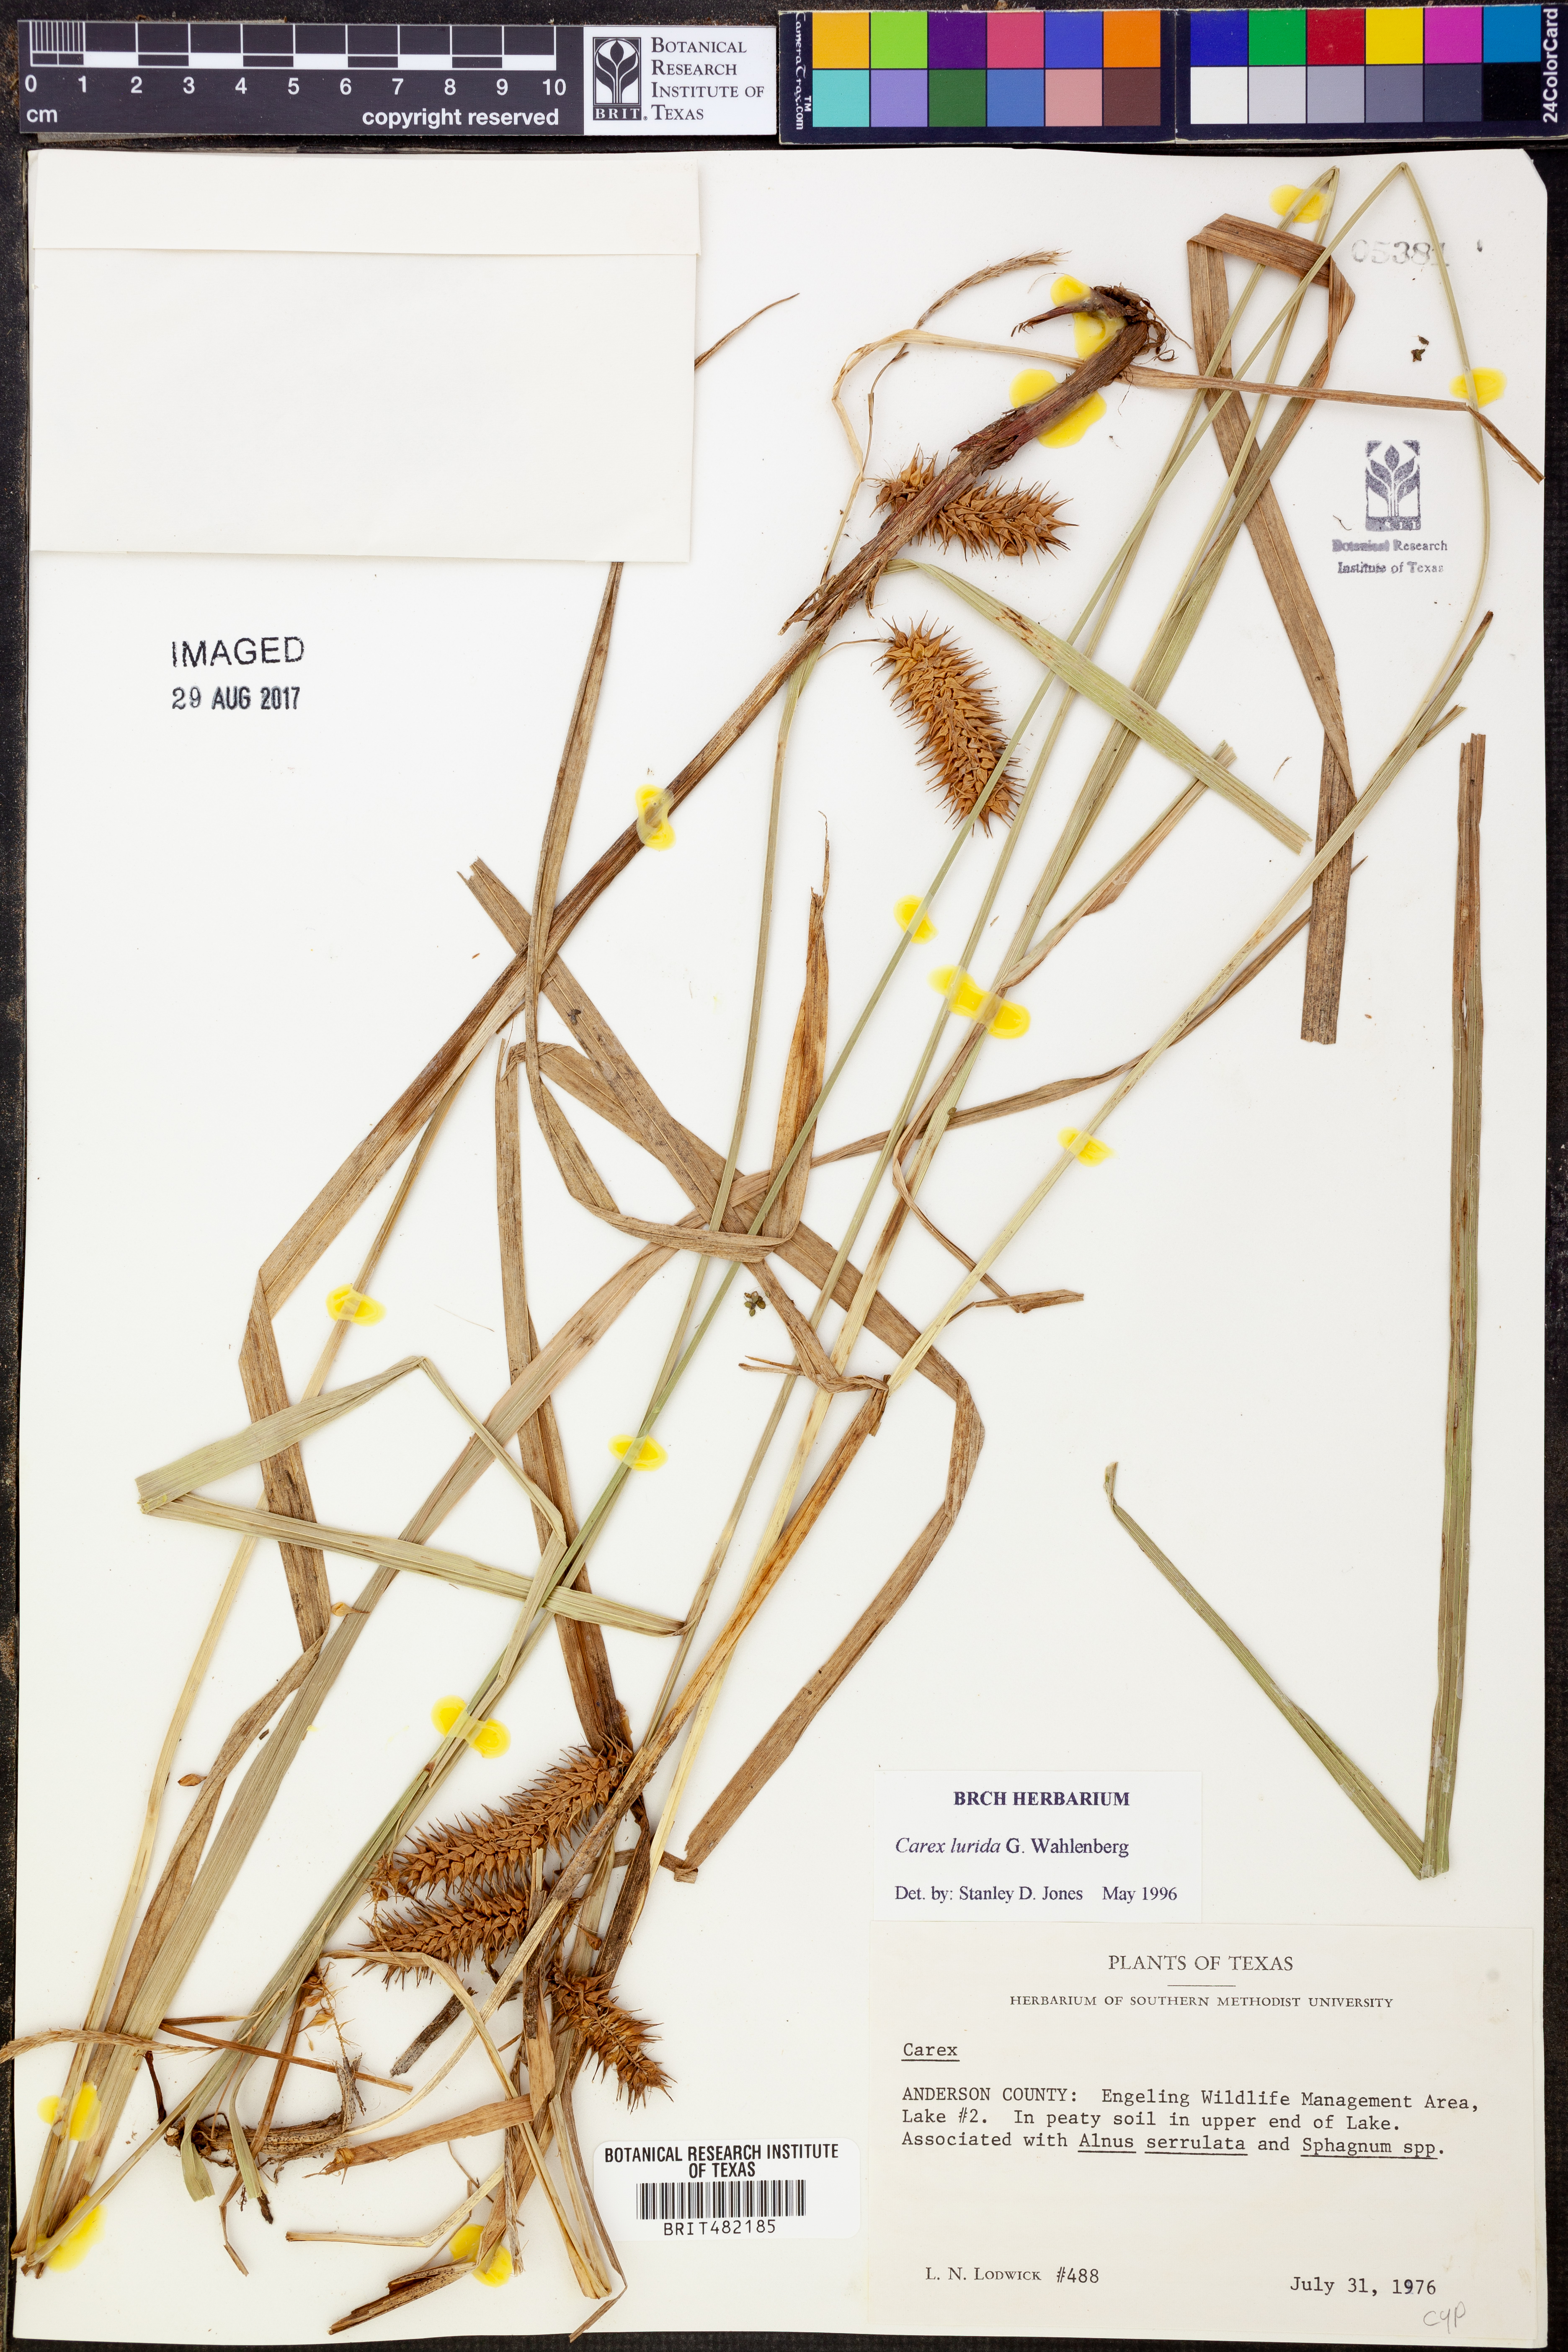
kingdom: Plantae
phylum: Tracheophyta
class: Liliopsida
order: Poales
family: Cyperaceae
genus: Carex
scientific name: Carex lurida
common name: Sallow sedge
